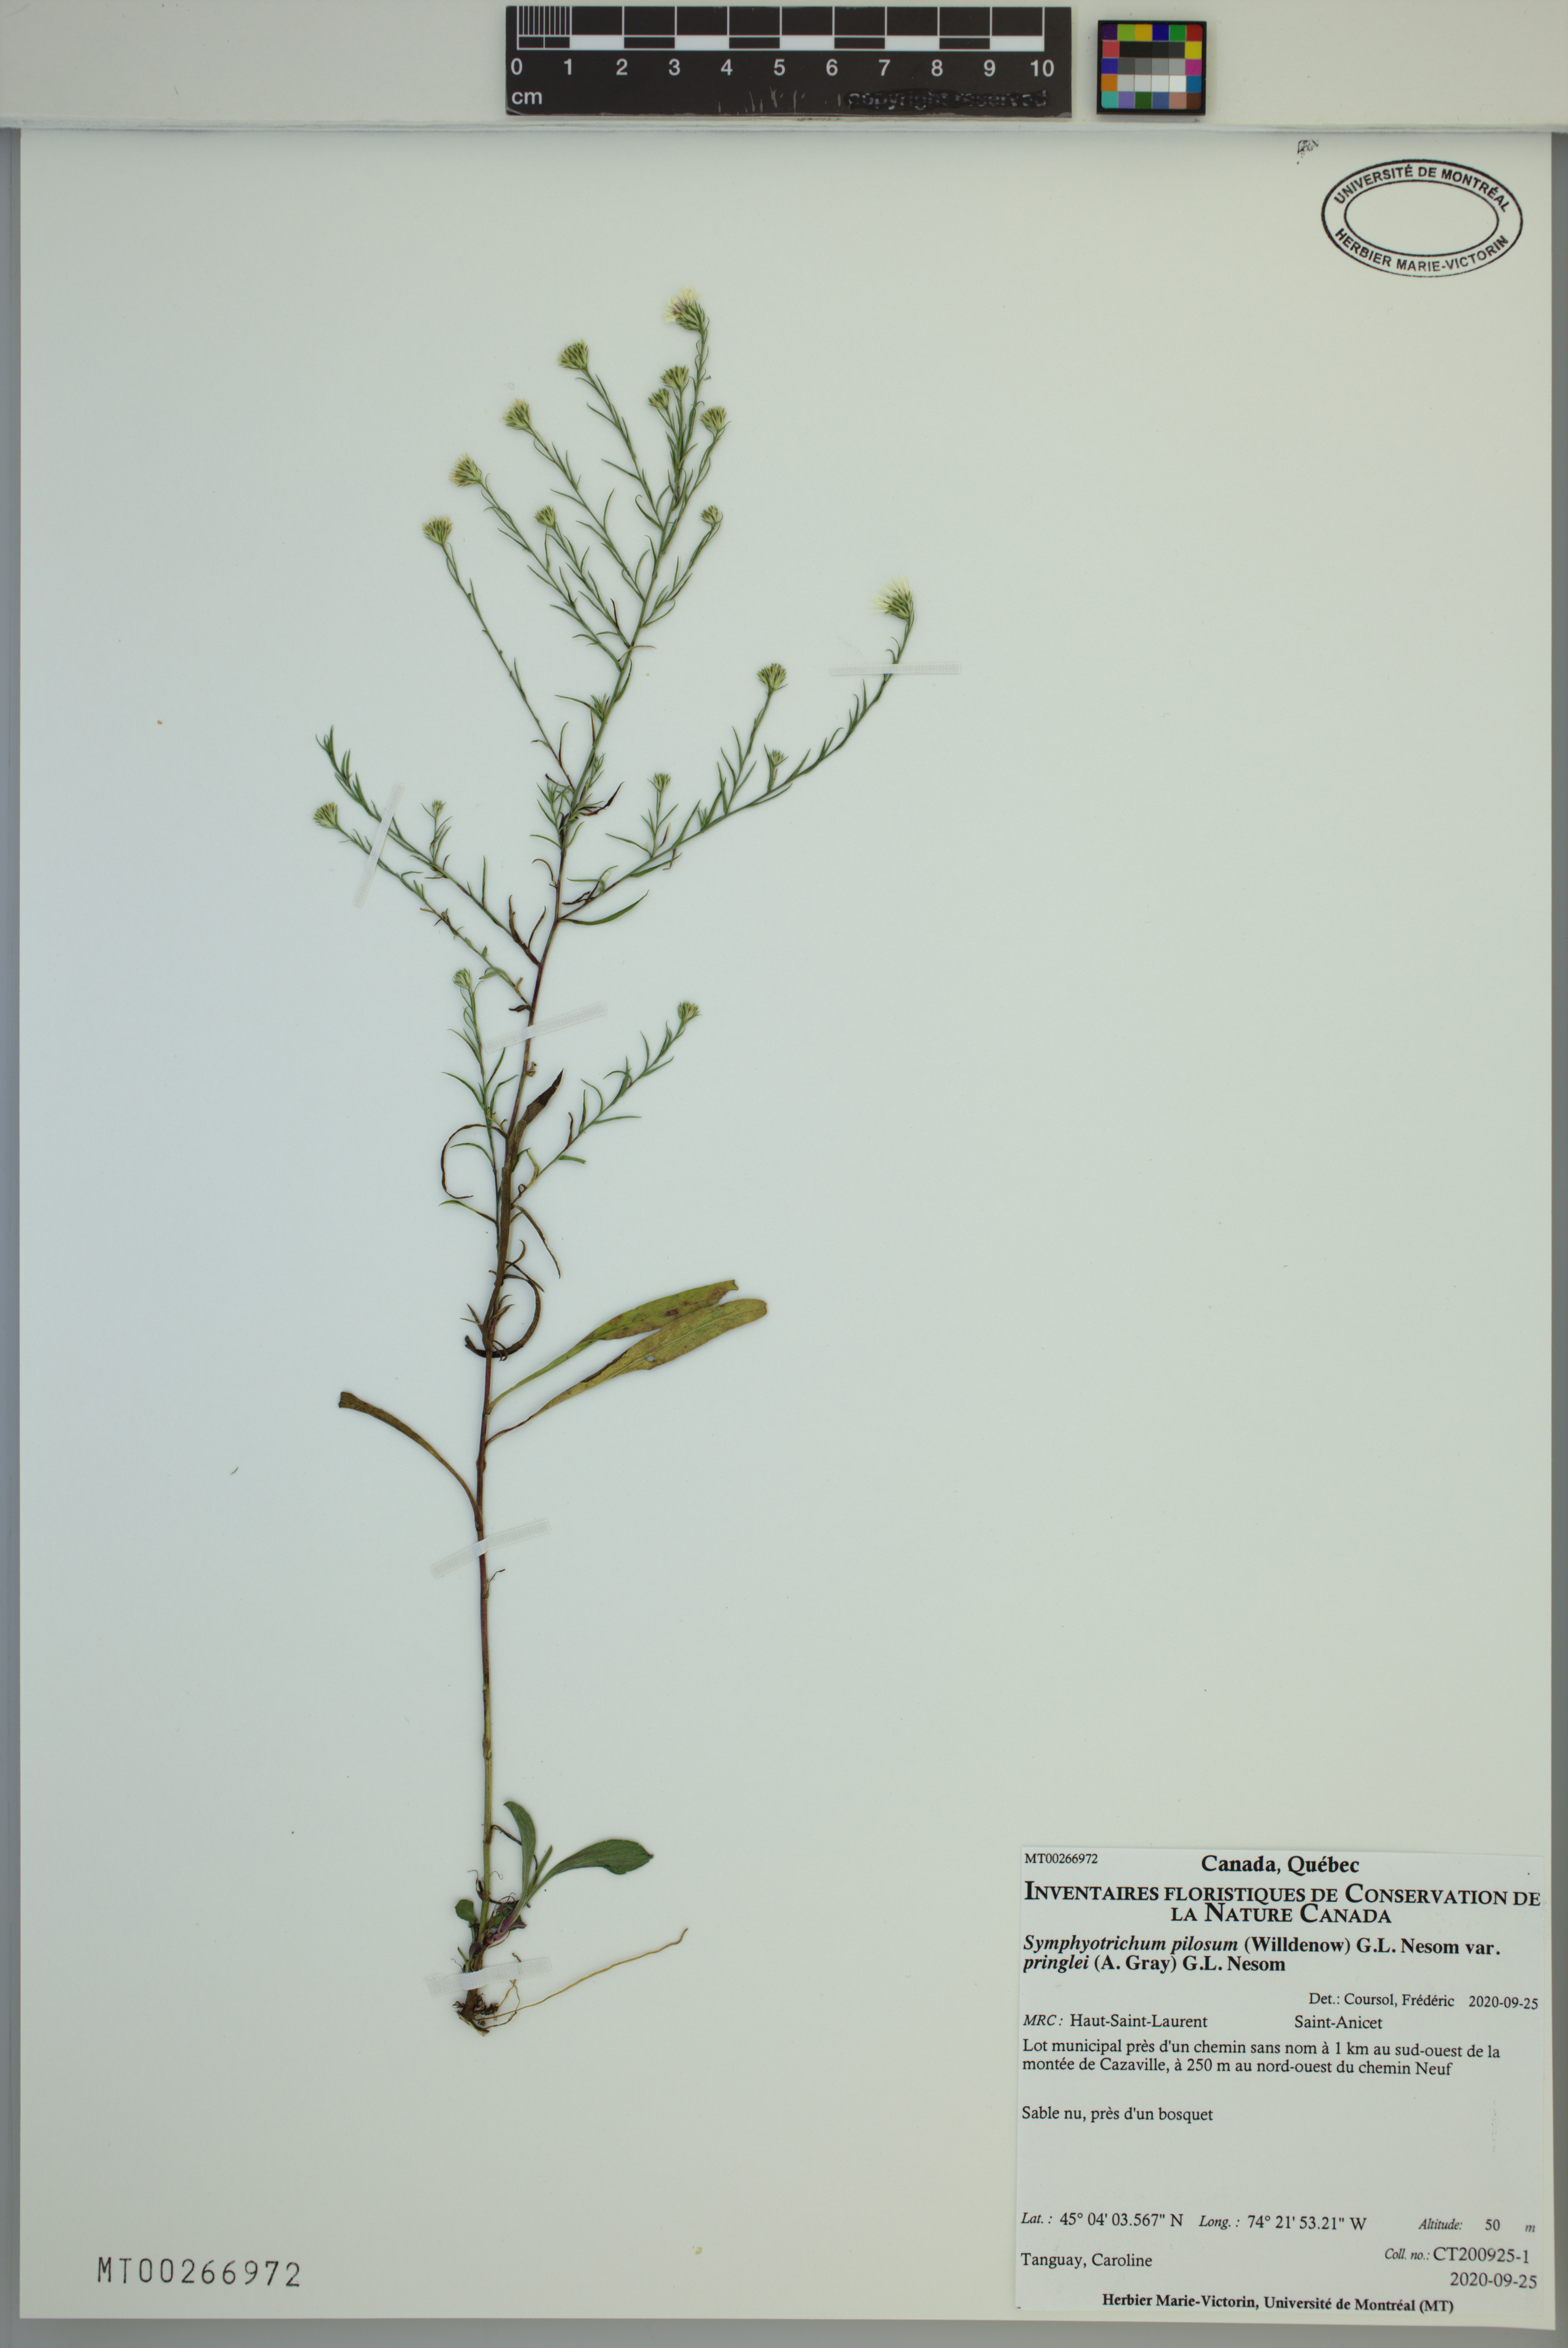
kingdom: Plantae
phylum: Tracheophyta
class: Magnoliopsida
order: Asterales
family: Asteraceae
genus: Symphyotrichum
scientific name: Symphyotrichum pilosum
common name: Awl aster
